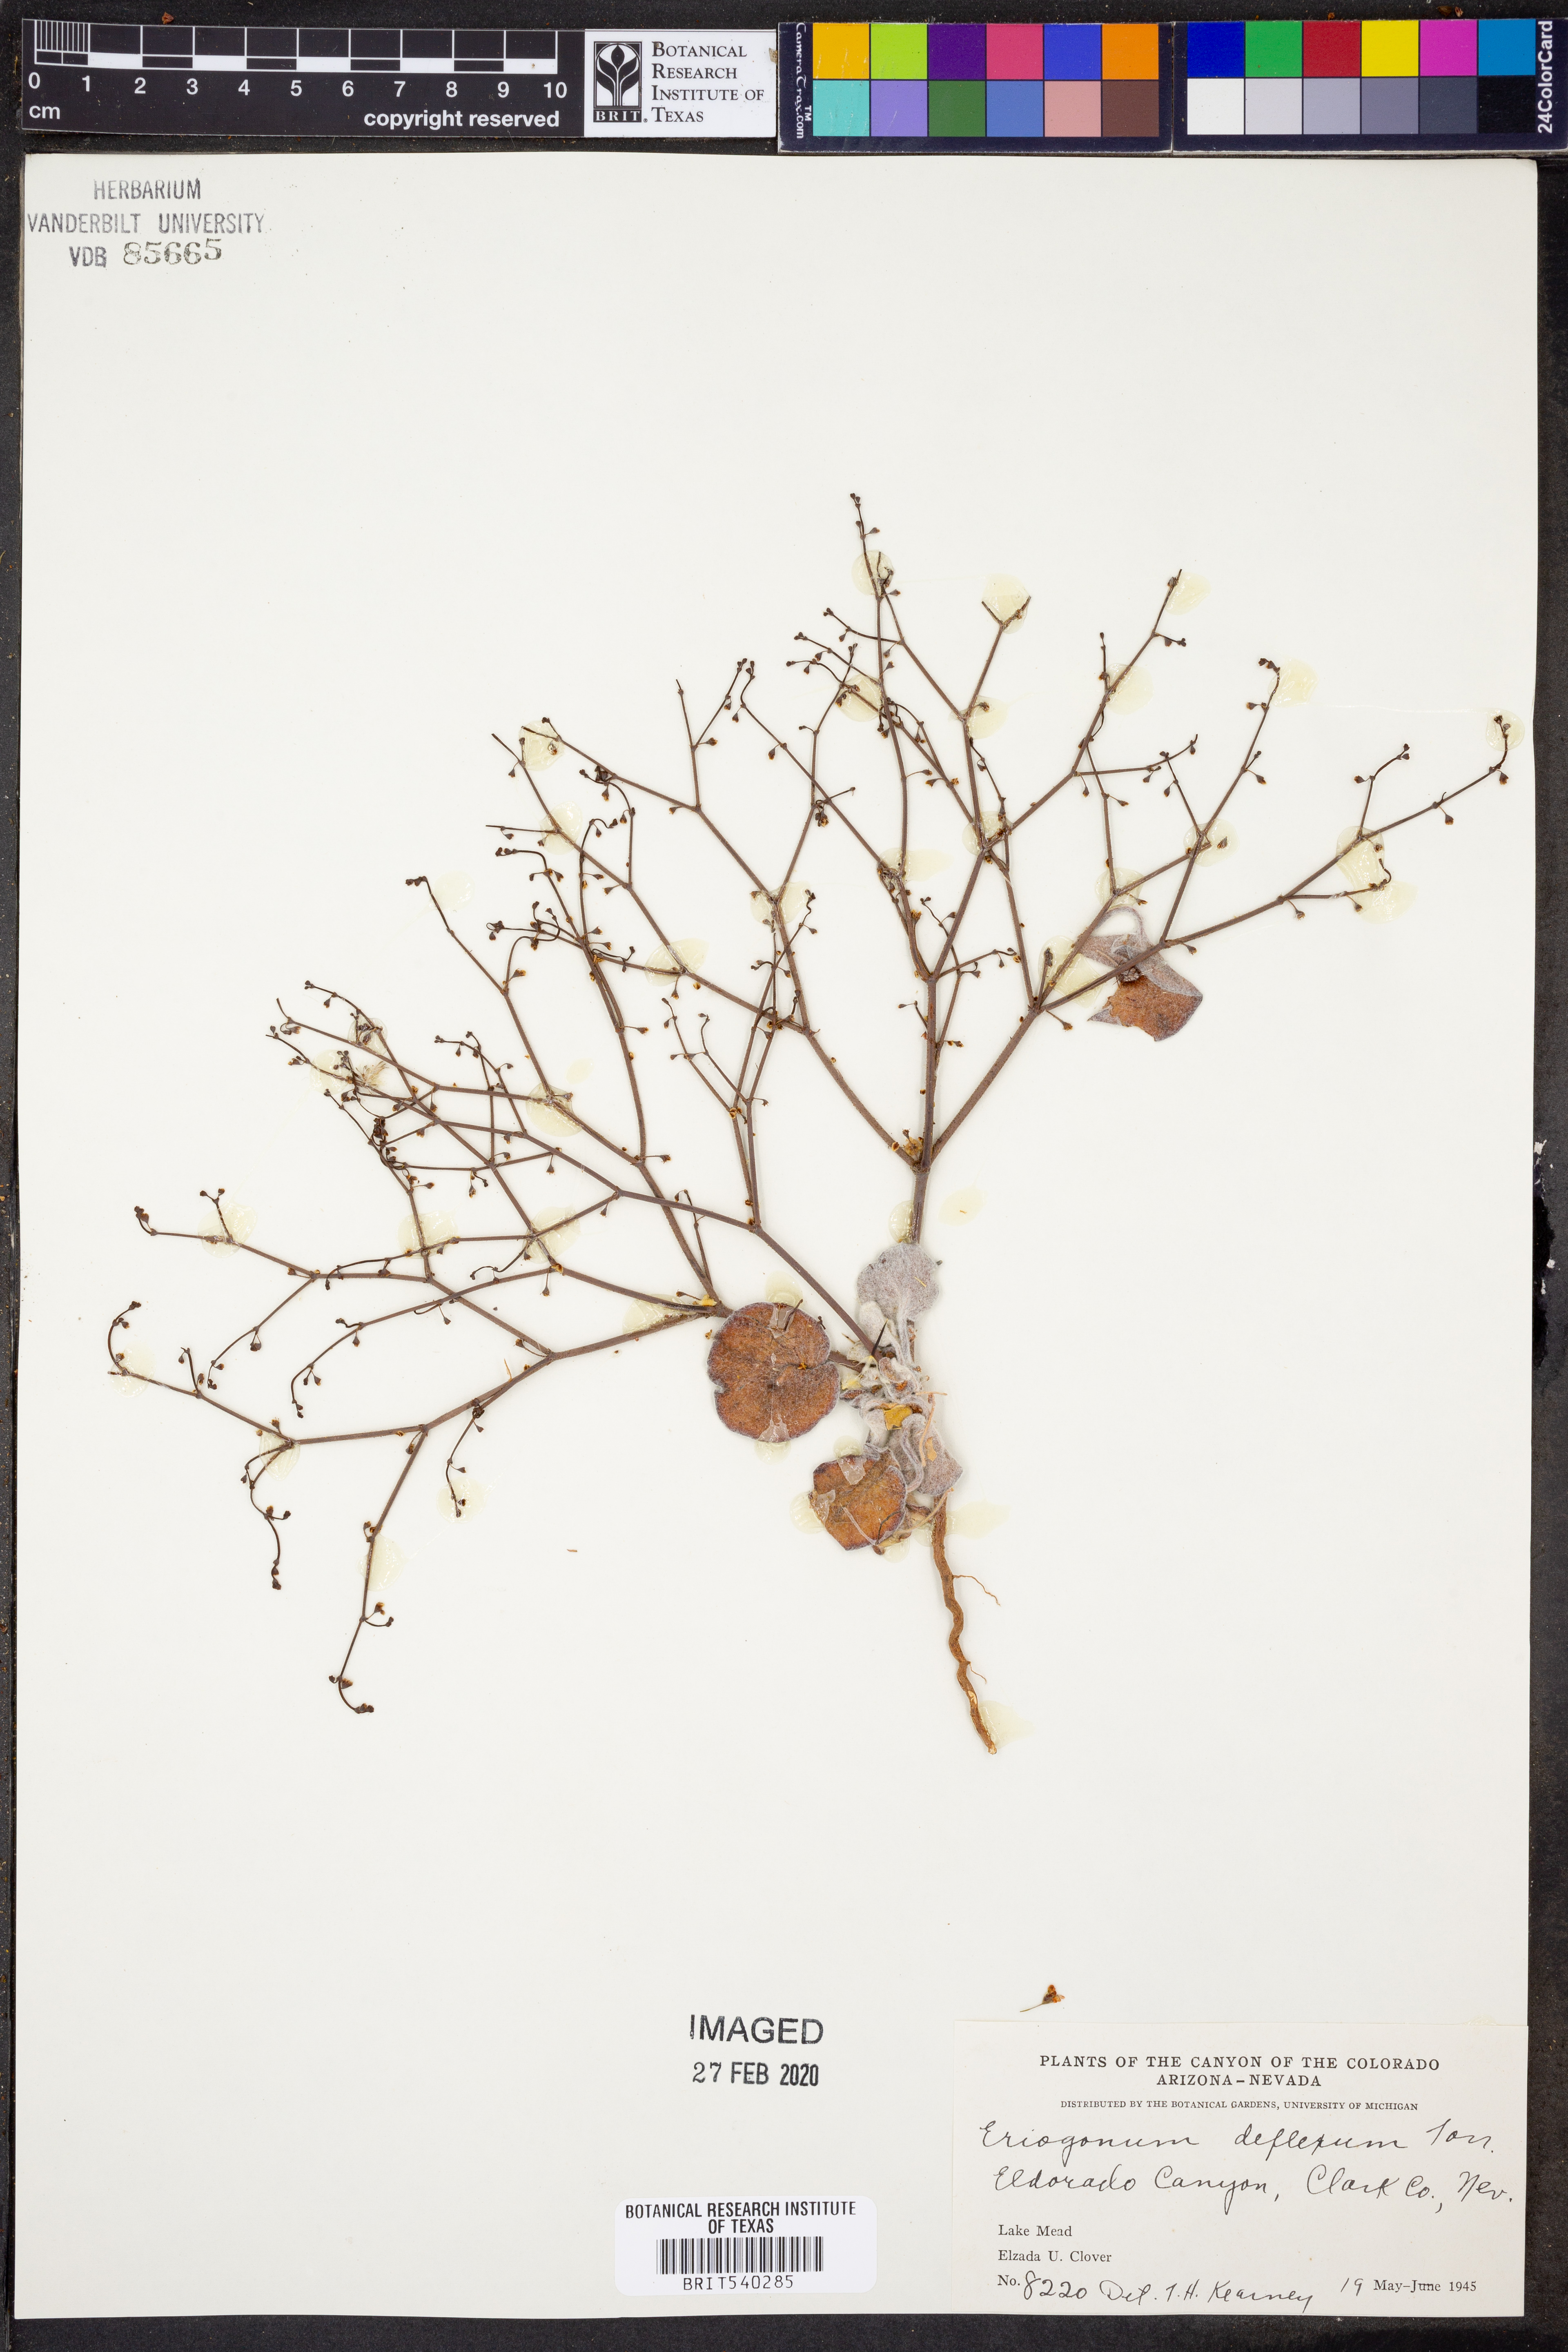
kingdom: Plantae
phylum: Tracheophyta
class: Magnoliopsida
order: Caryophyllales
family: Polygonaceae
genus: Eriogonum
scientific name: Eriogonum deflexum
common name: Skeleton-weed
